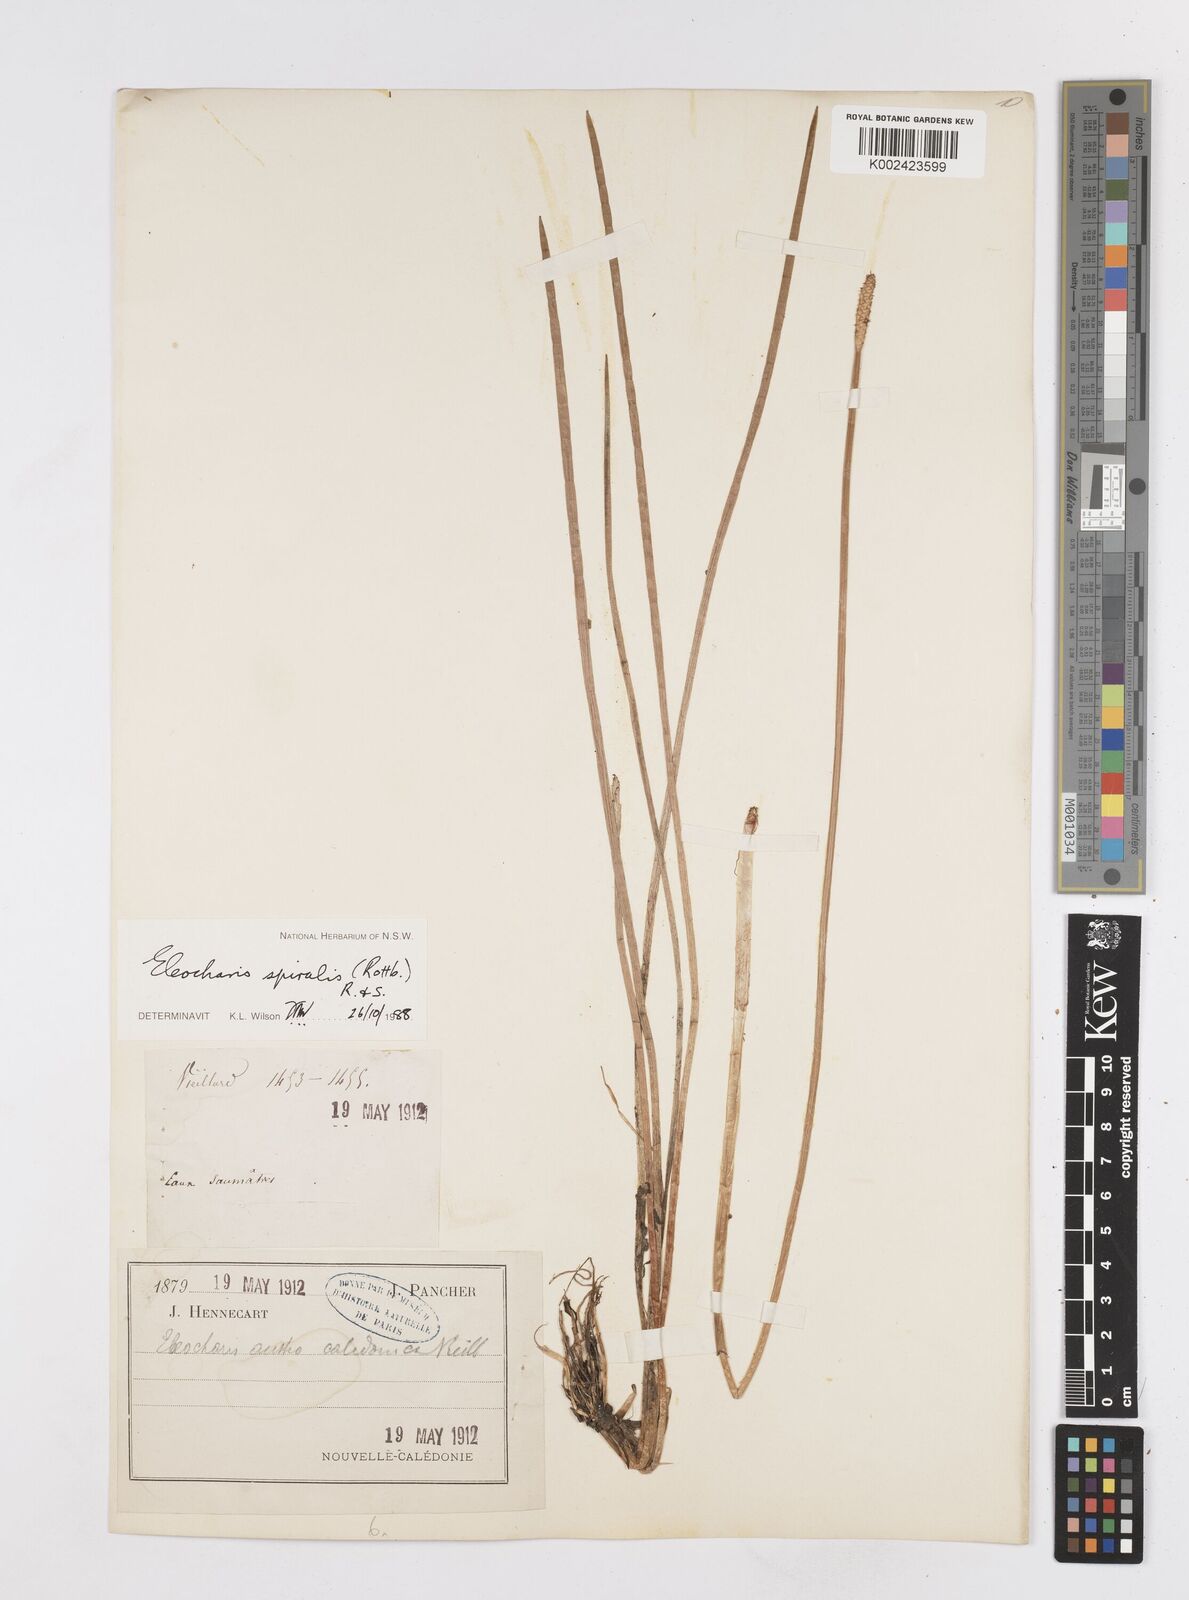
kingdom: Plantae
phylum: Tracheophyta
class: Liliopsida
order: Poales
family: Cyperaceae
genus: Eleocharis
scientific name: Eleocharis spiralis
